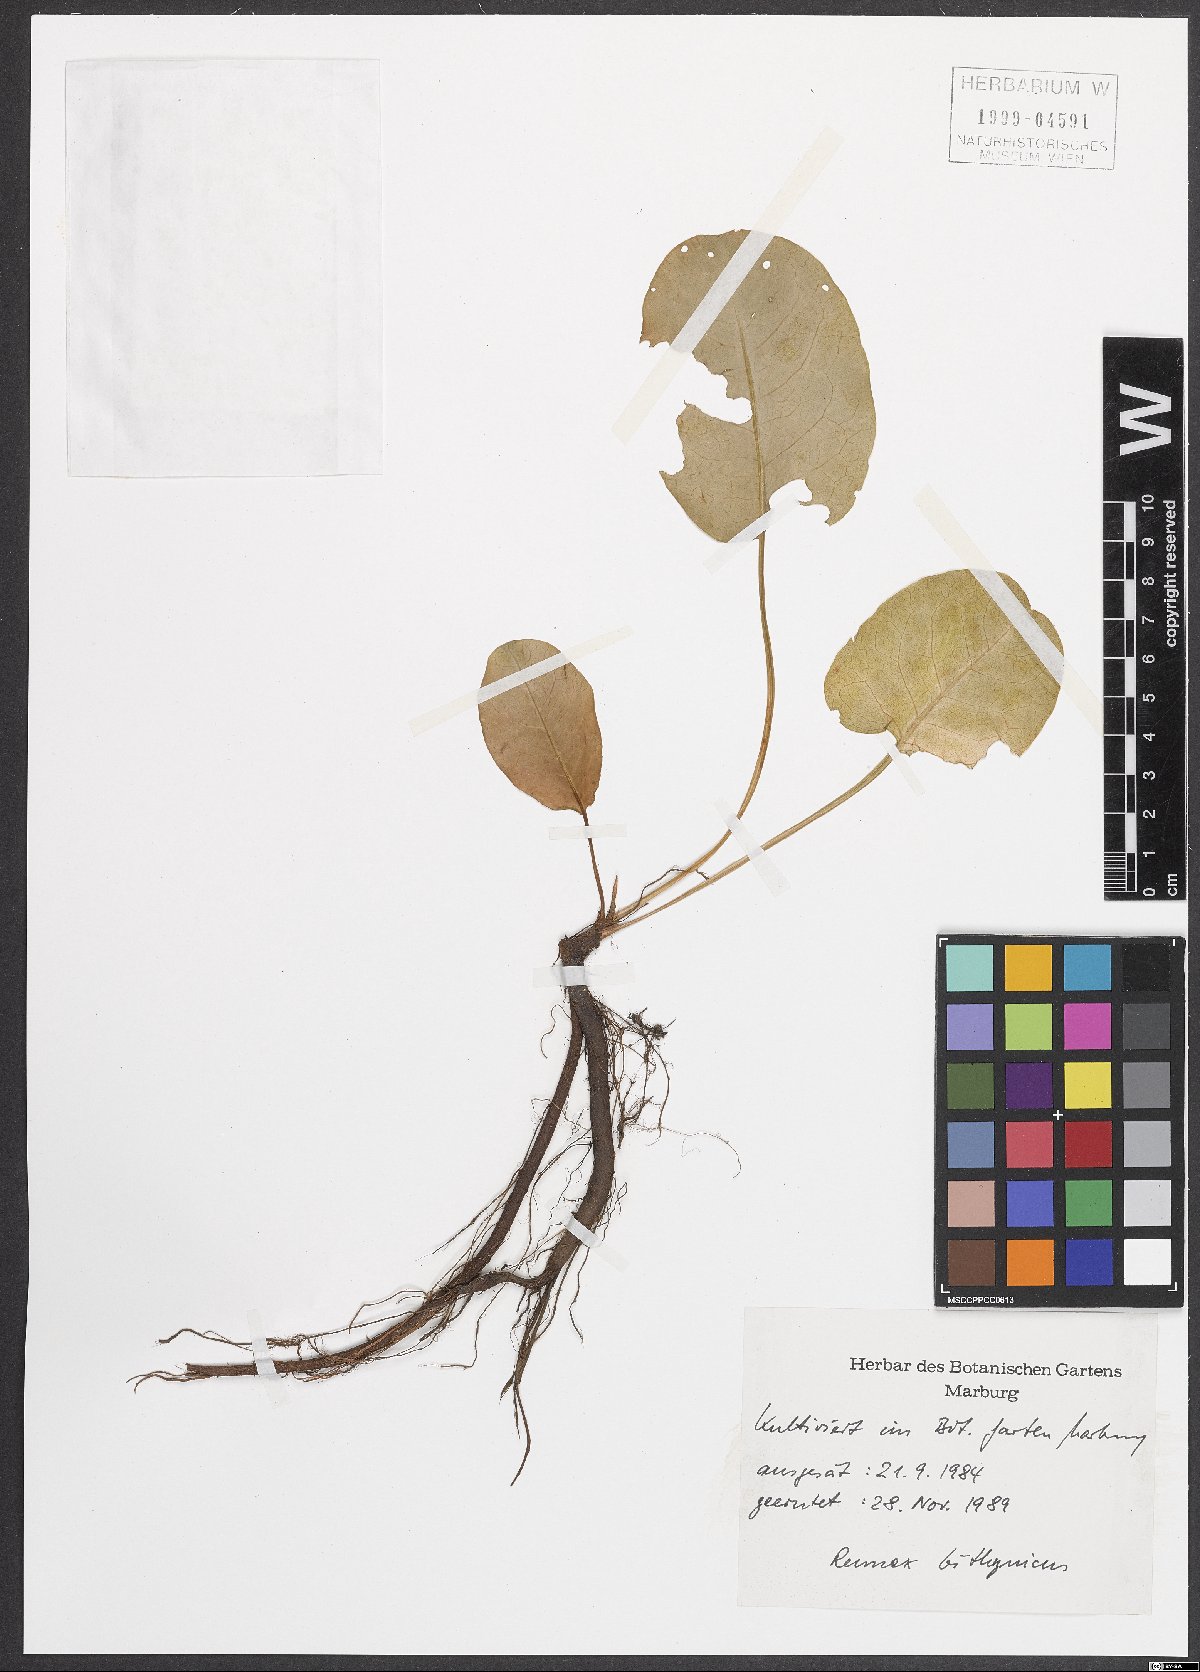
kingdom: Plantae
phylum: Tracheophyta
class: Magnoliopsida
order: Caryophyllales
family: Polygonaceae
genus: Rumex
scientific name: Rumex bithynicus
